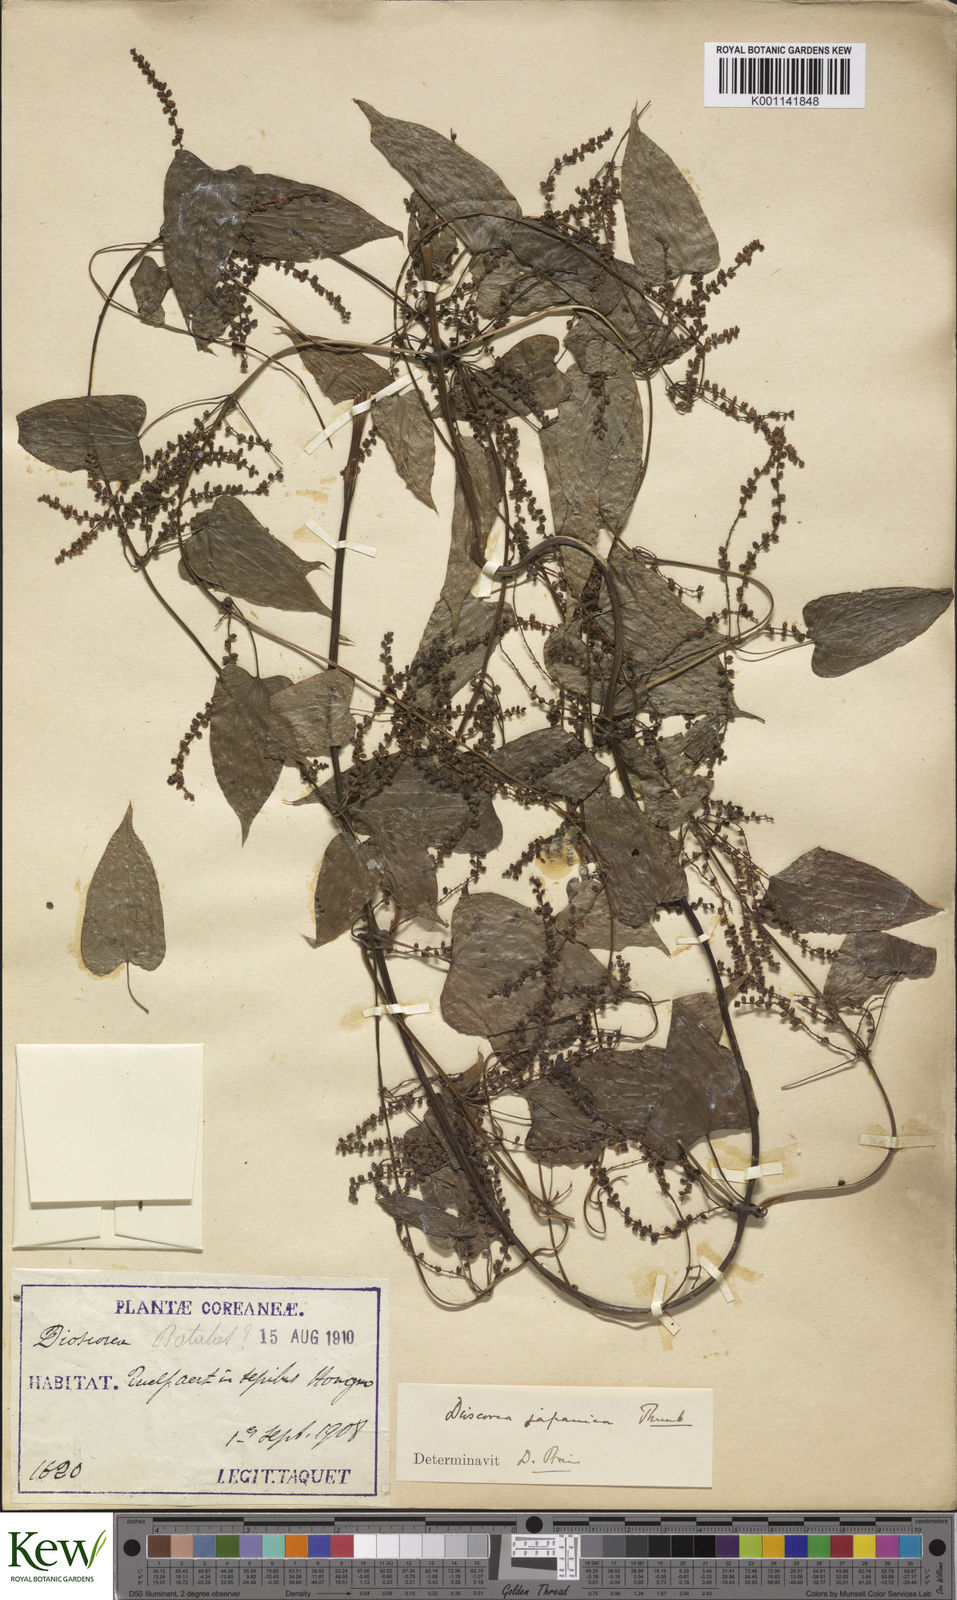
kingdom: Plantae
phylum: Tracheophyta
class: Liliopsida
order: Dioscoreales
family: Dioscoreaceae
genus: Dioscorea
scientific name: Dioscorea japonica
